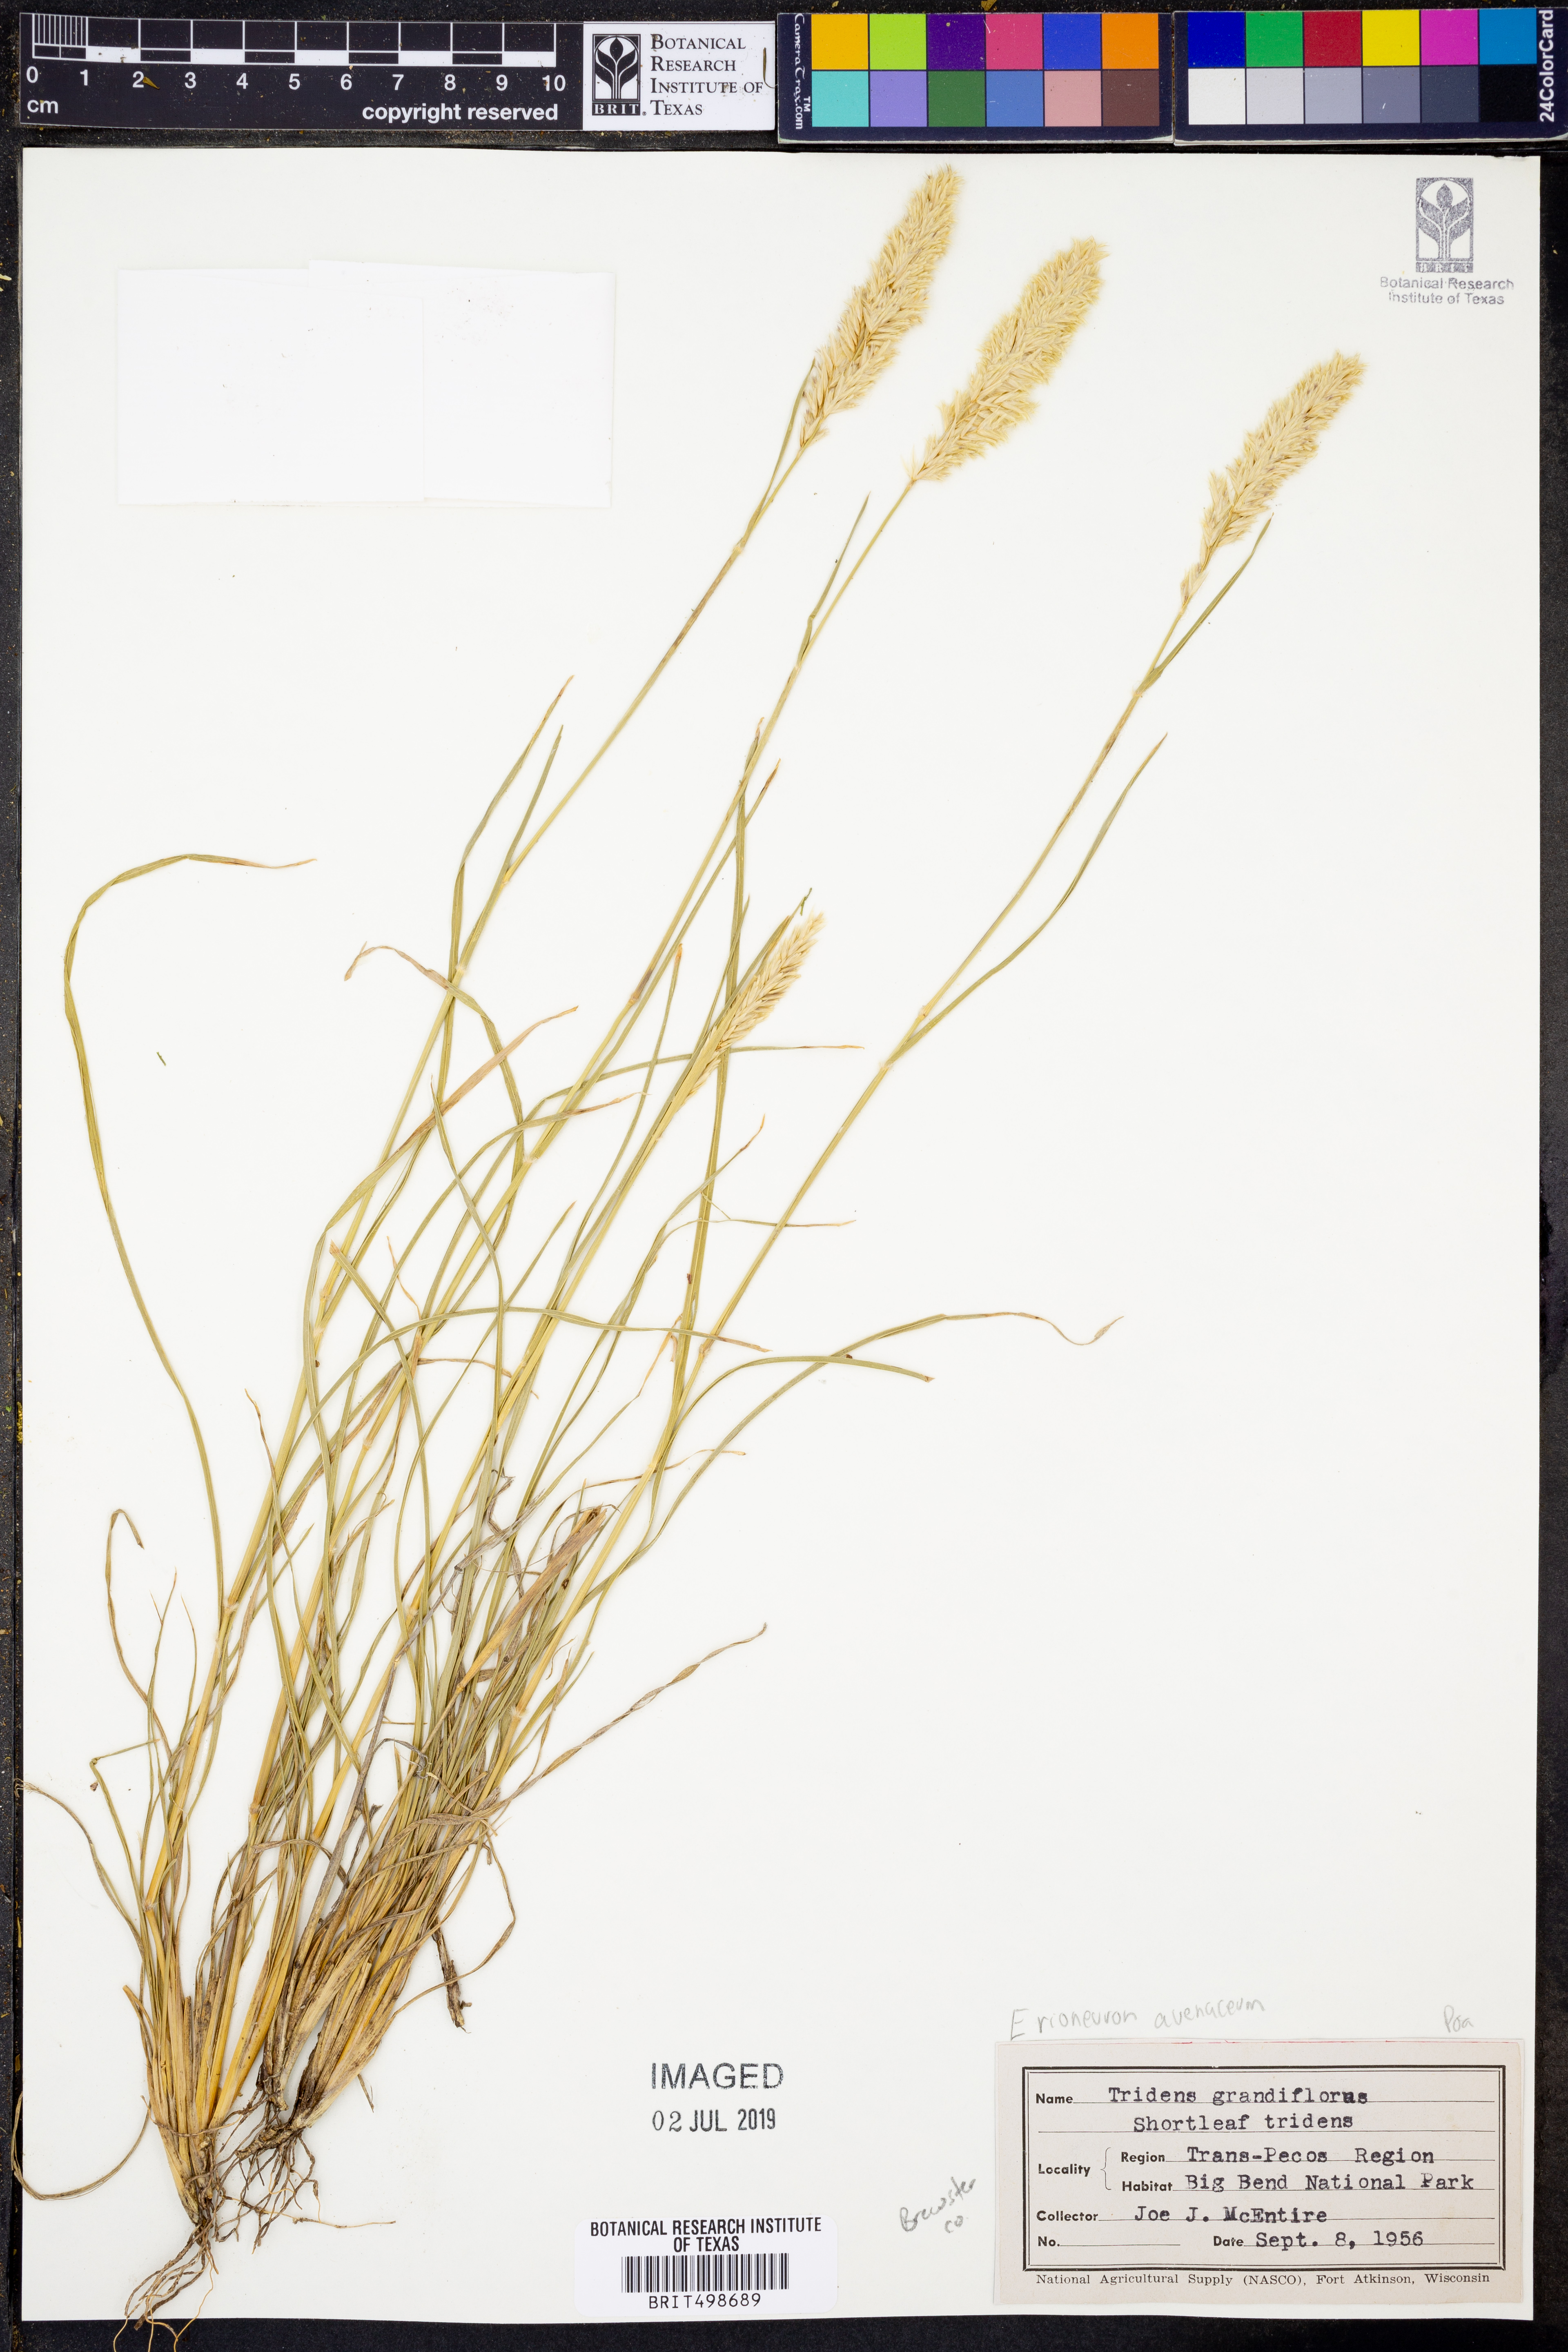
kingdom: Plantae
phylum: Tracheophyta
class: Liliopsida
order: Poales
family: Poaceae
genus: Erioneuron
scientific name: Erioneuron avenaceum
